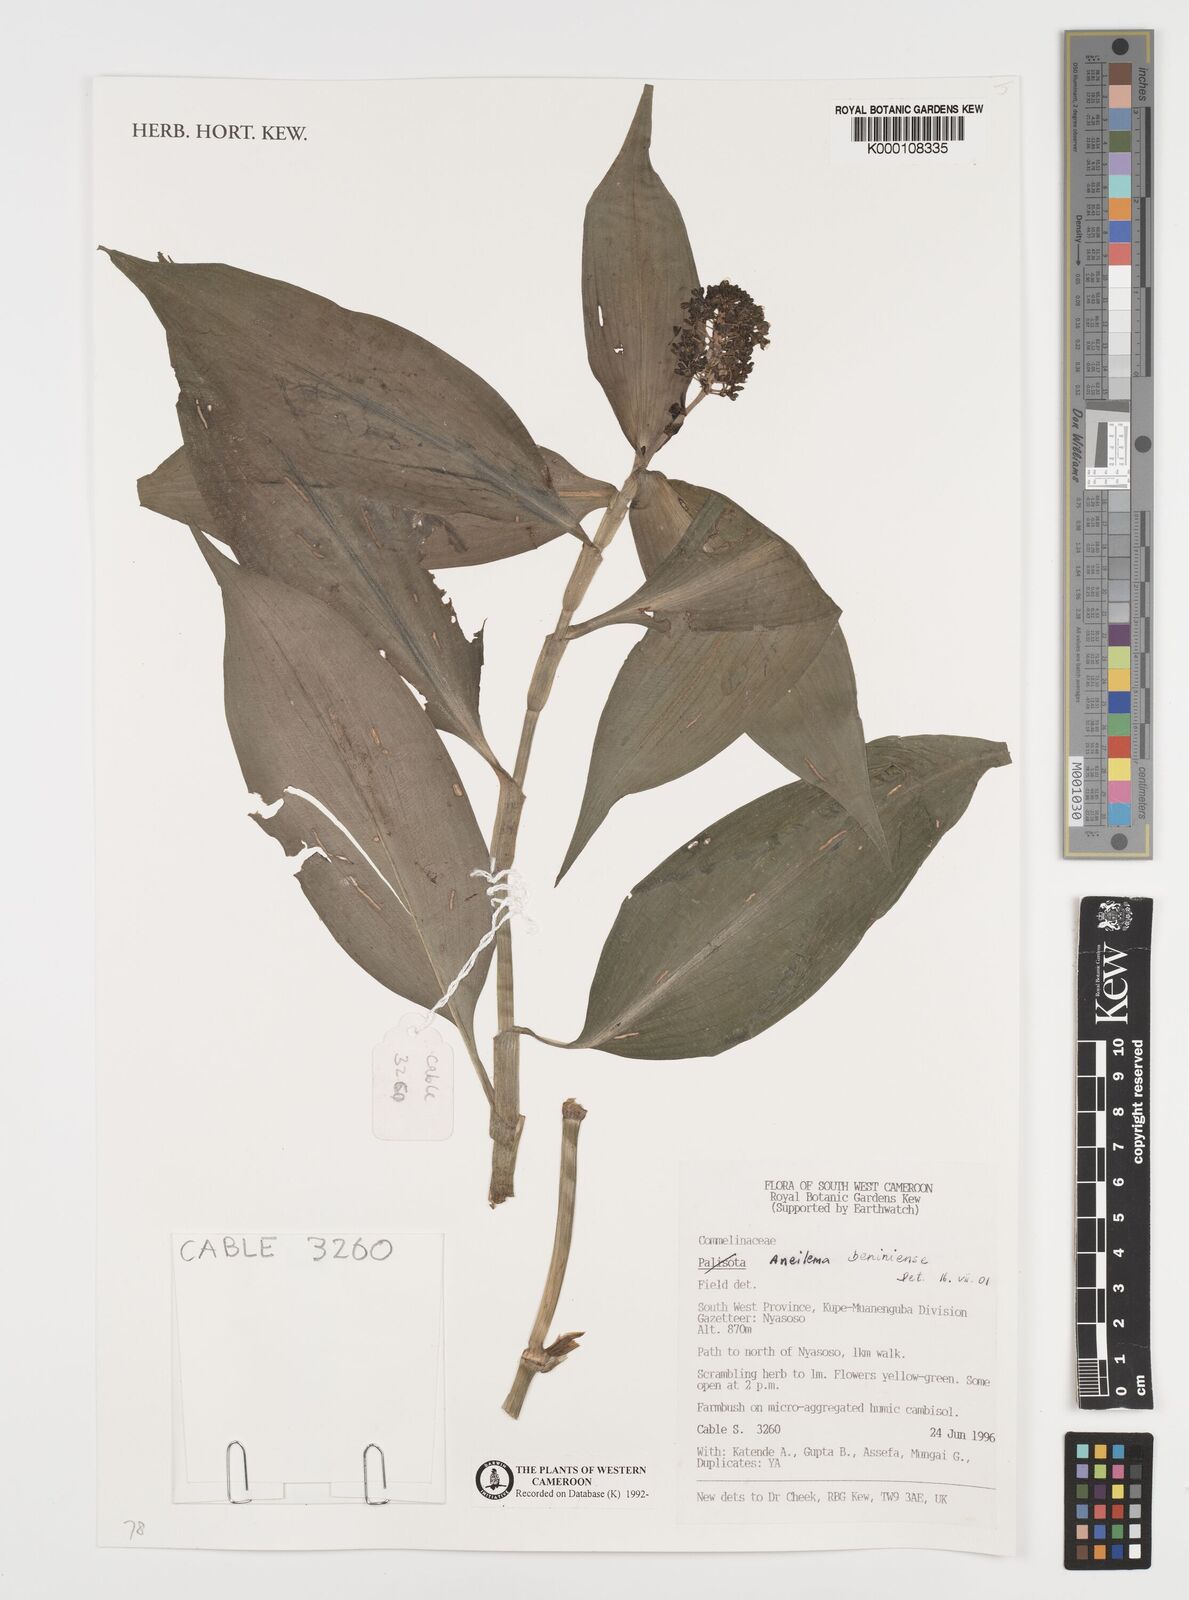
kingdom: Plantae
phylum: Tracheophyta
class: Liliopsida
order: Commelinales
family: Commelinaceae
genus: Aneilema
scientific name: Aneilema beniniense
